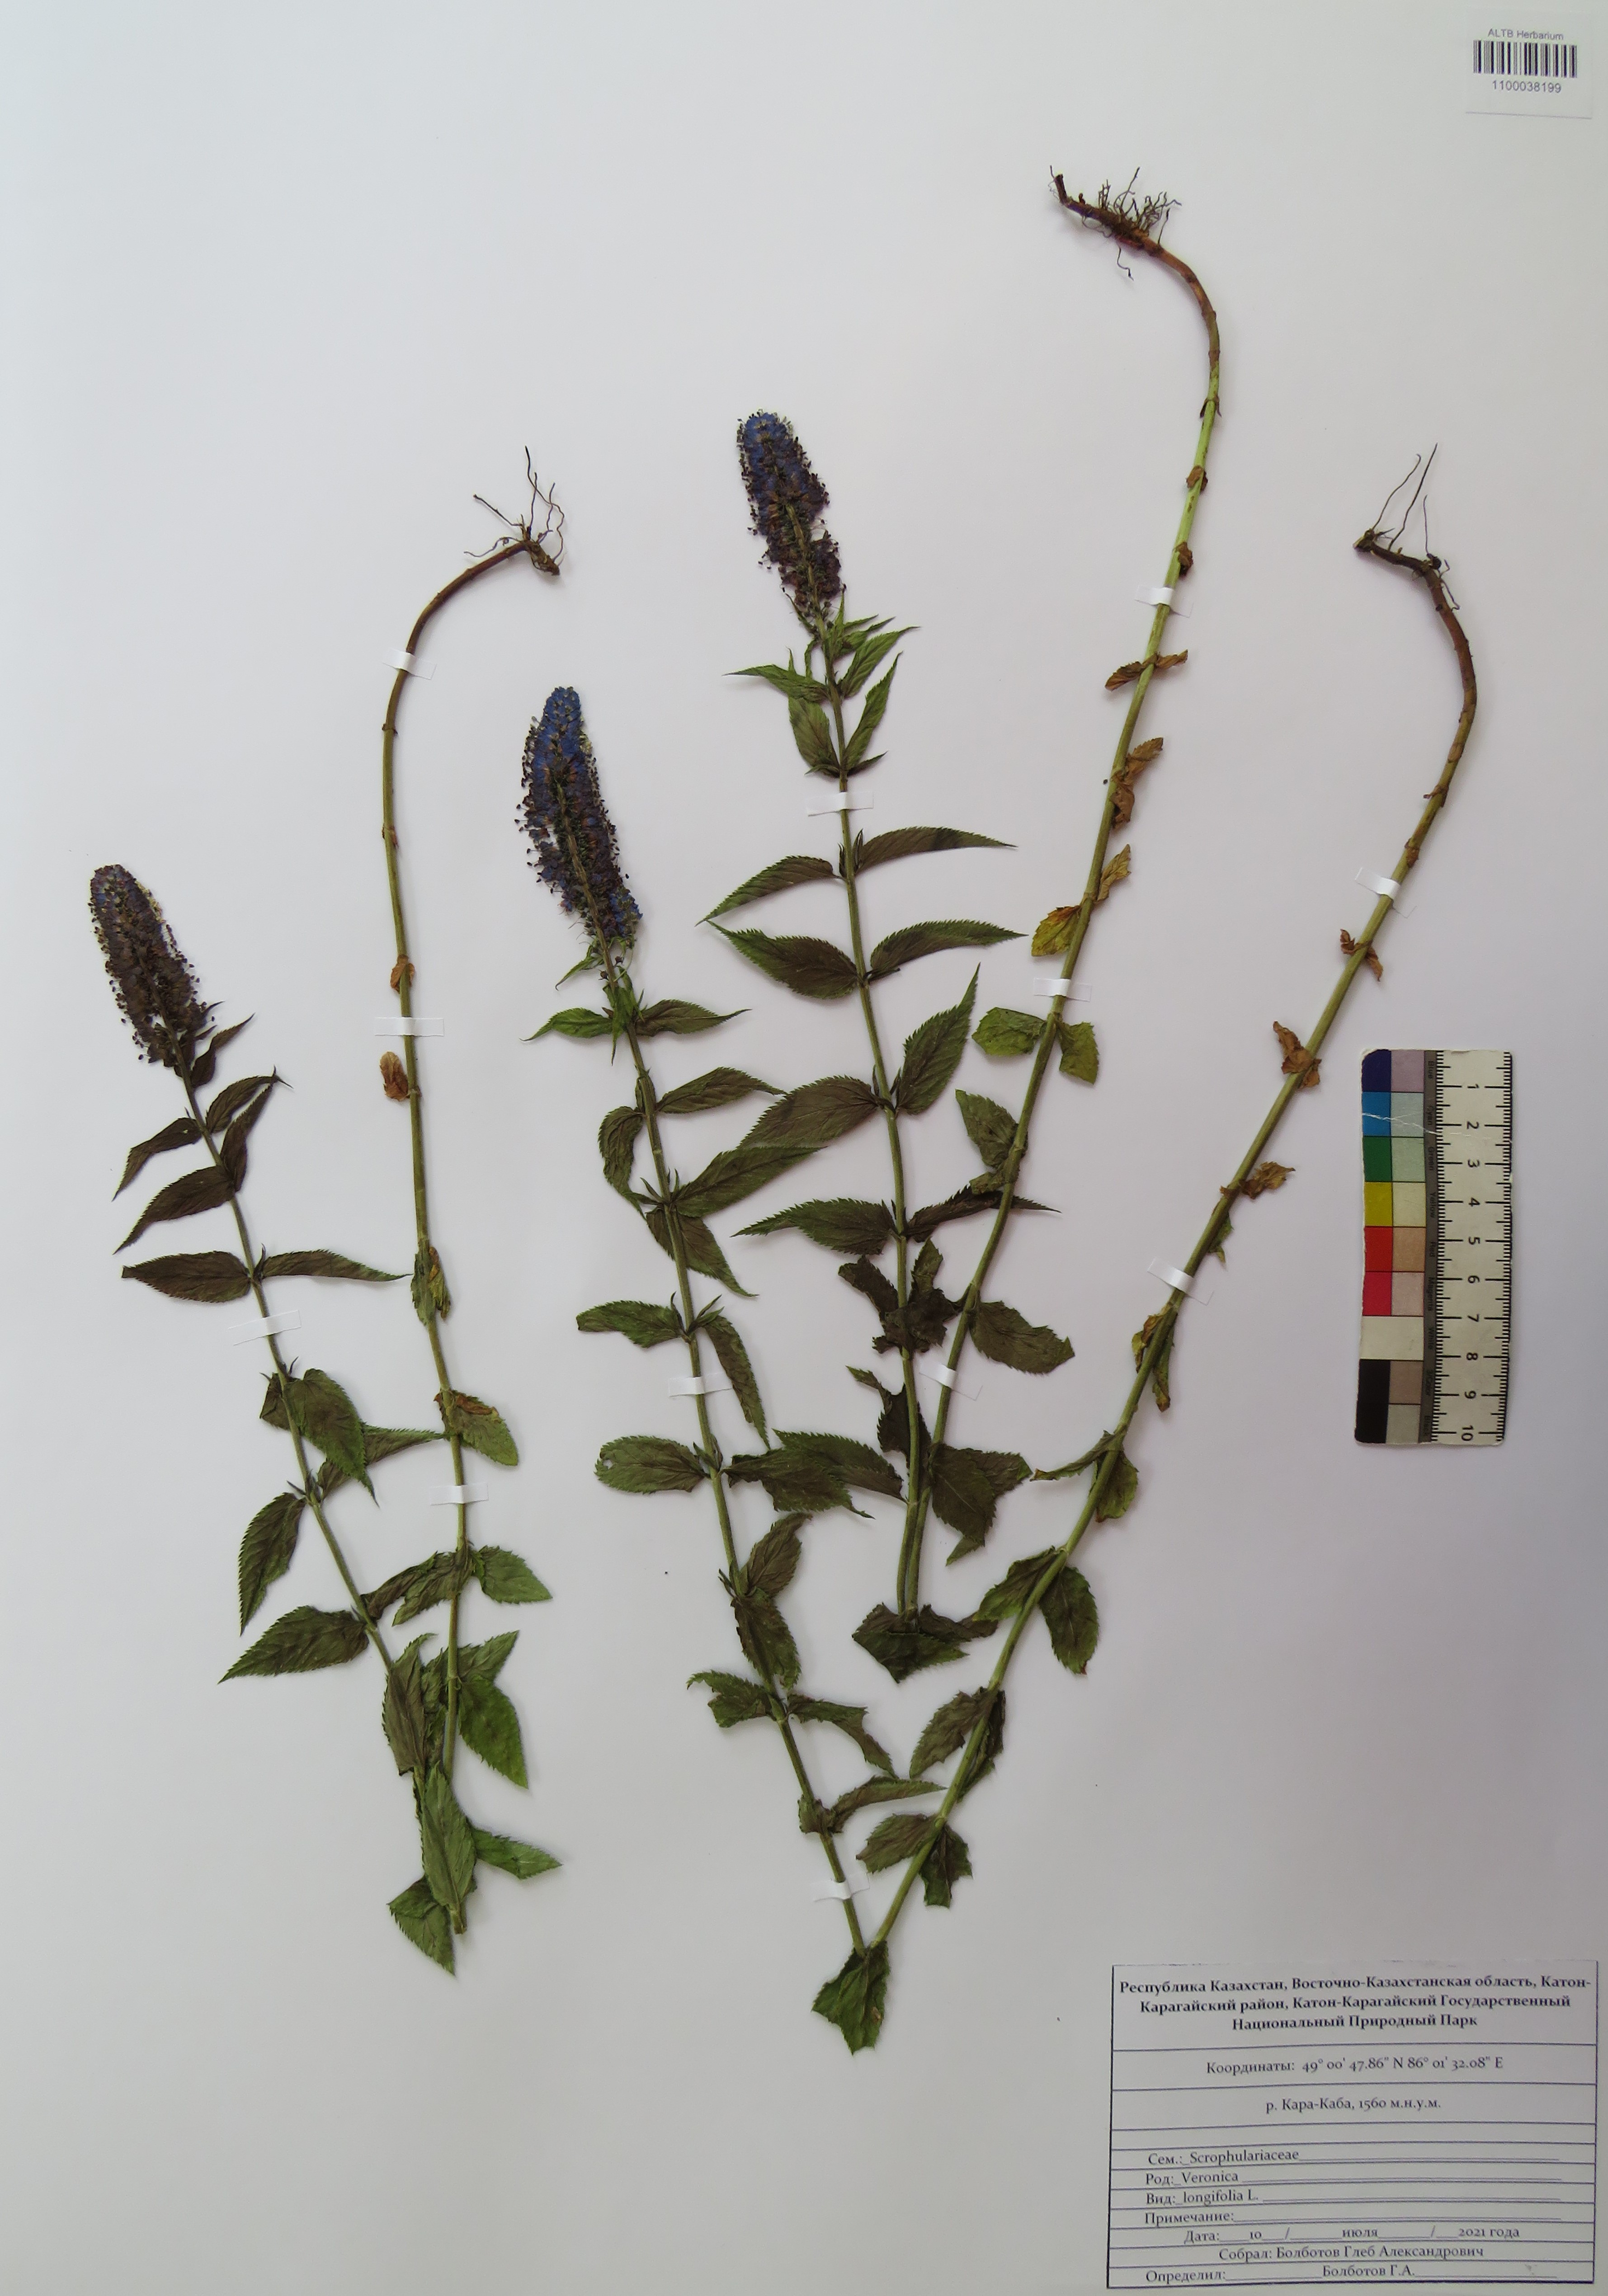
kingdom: Plantae
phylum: Tracheophyta
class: Magnoliopsida
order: Lamiales
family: Plantaginaceae
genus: Veronica
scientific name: Veronica longifolia
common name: Garden speedwell
